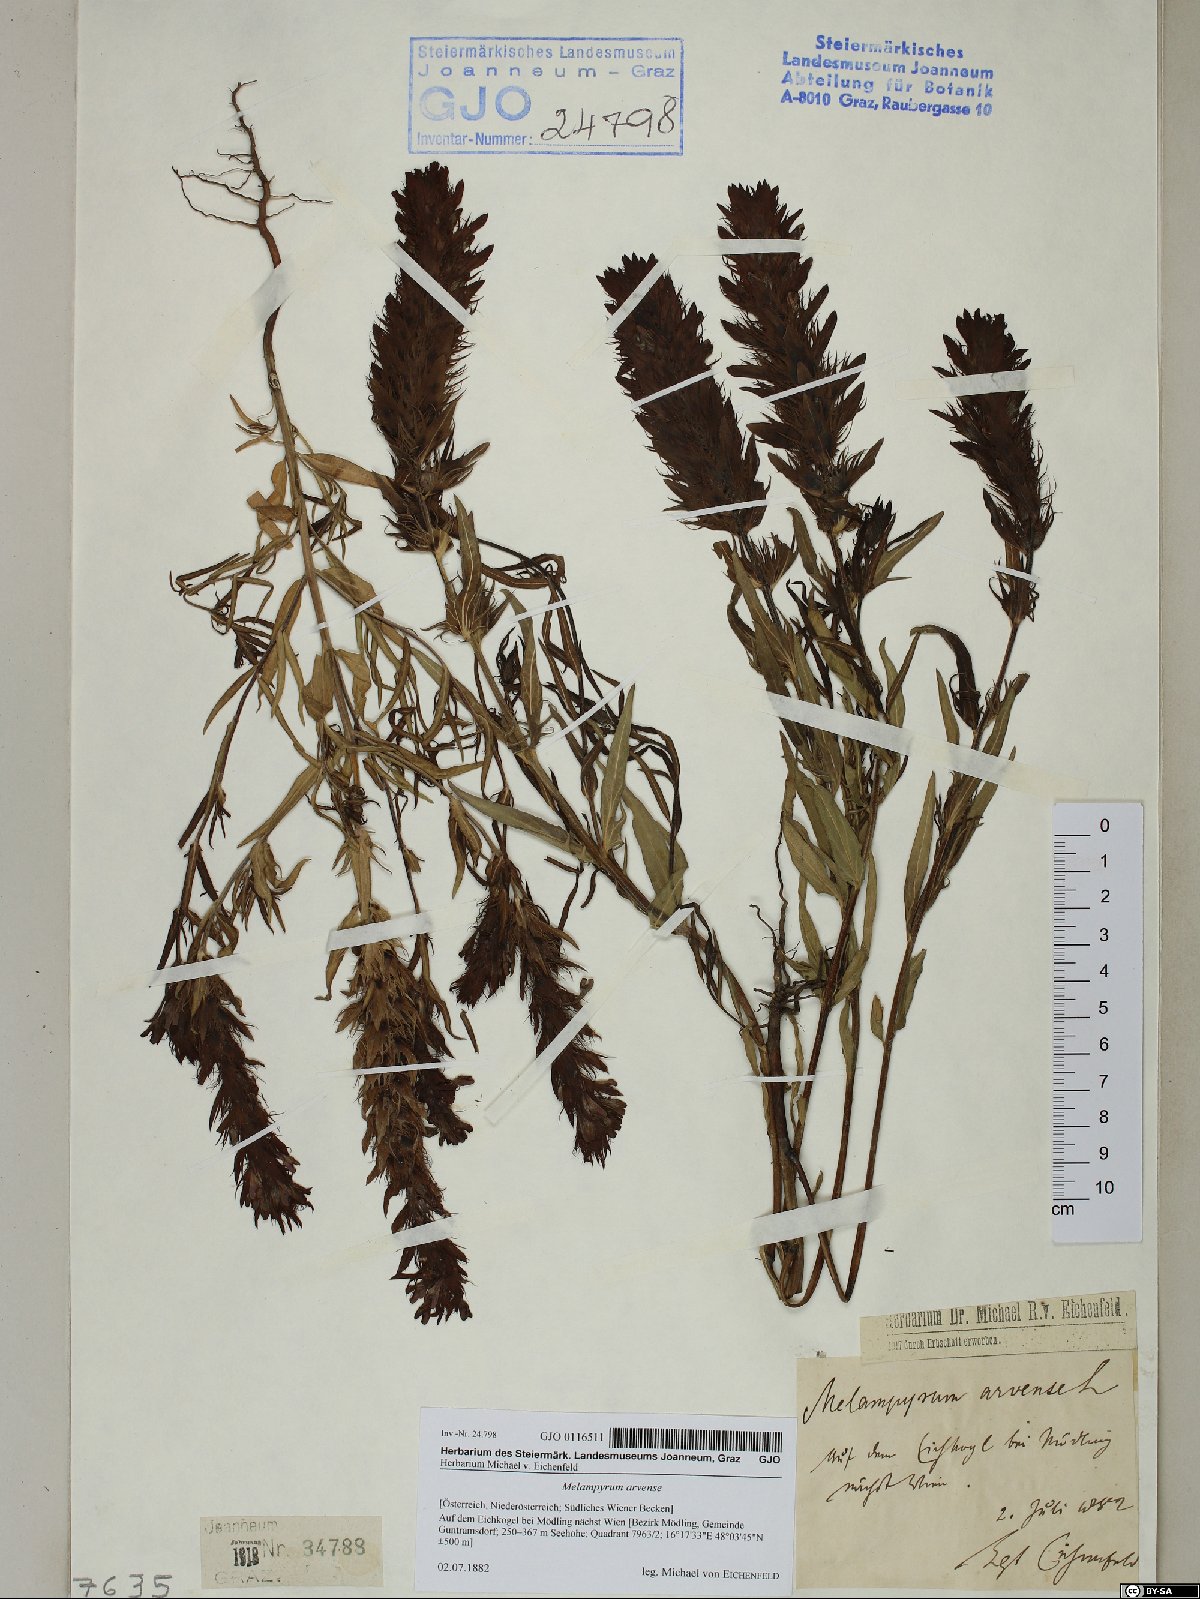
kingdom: Plantae
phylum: Tracheophyta
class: Magnoliopsida
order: Lamiales
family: Orobanchaceae
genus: Melampyrum
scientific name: Melampyrum arvense
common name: Field cow-wheat
